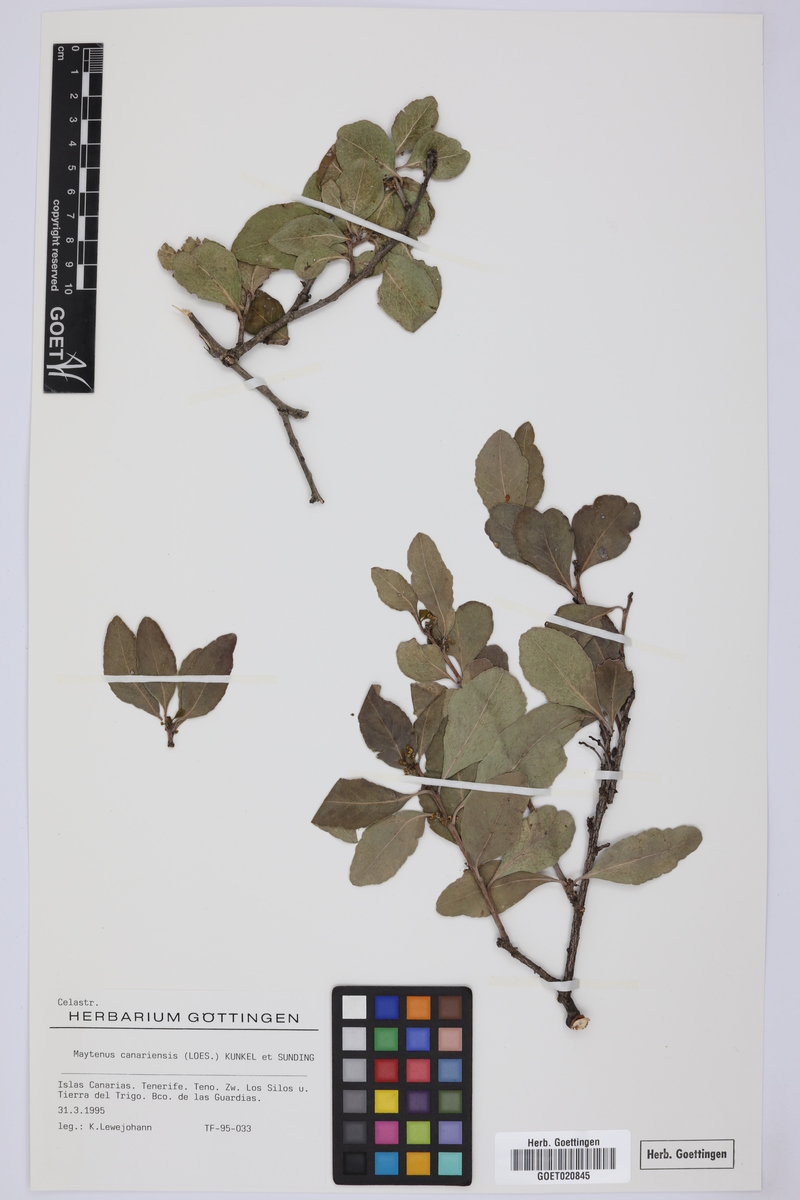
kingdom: Plantae
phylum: Tracheophyta
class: Magnoliopsida
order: Celastrales
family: Celastraceae
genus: Gymnosporia
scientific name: Gymnosporia cassinoides
